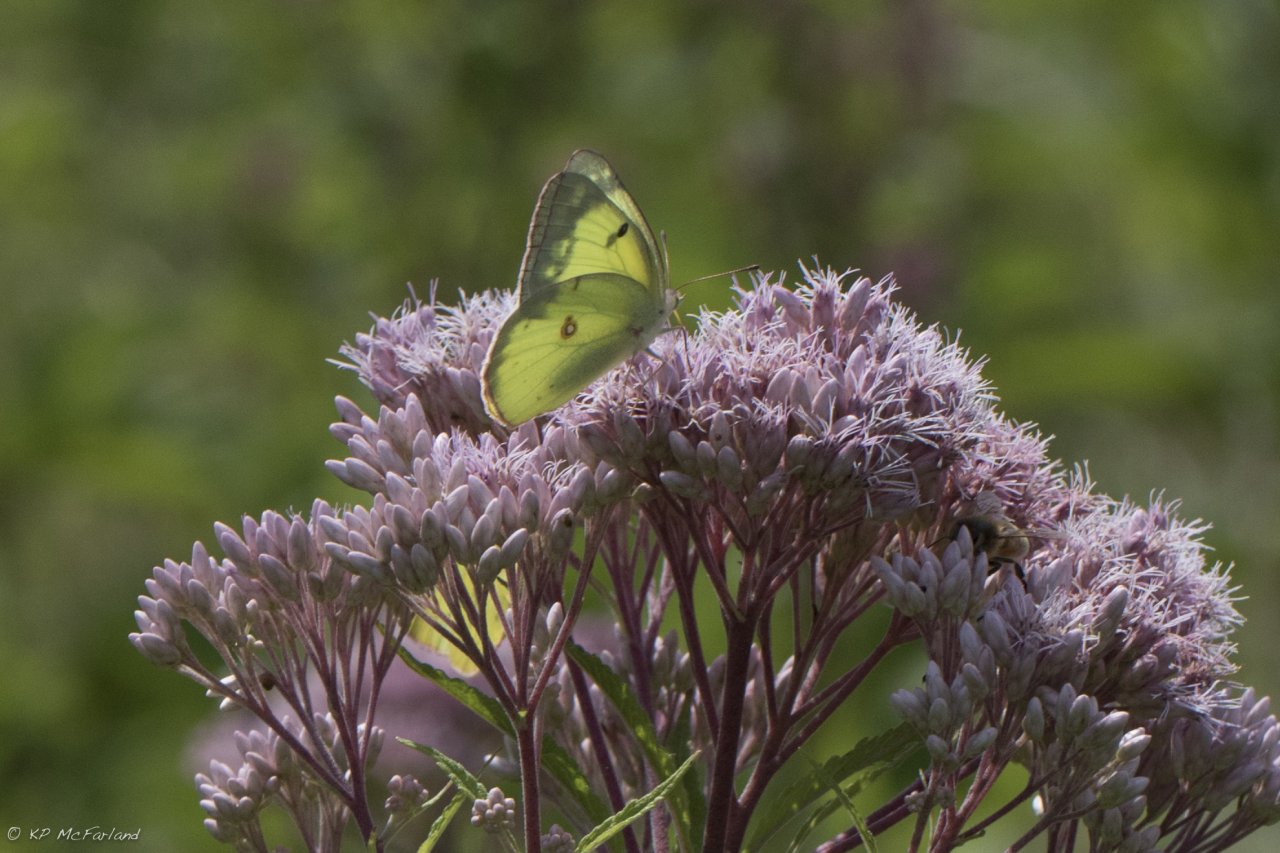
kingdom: Animalia
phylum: Arthropoda
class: Insecta
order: Lepidoptera
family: Pieridae
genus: Colias
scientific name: Colias philodice
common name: Clouded Sulphur
